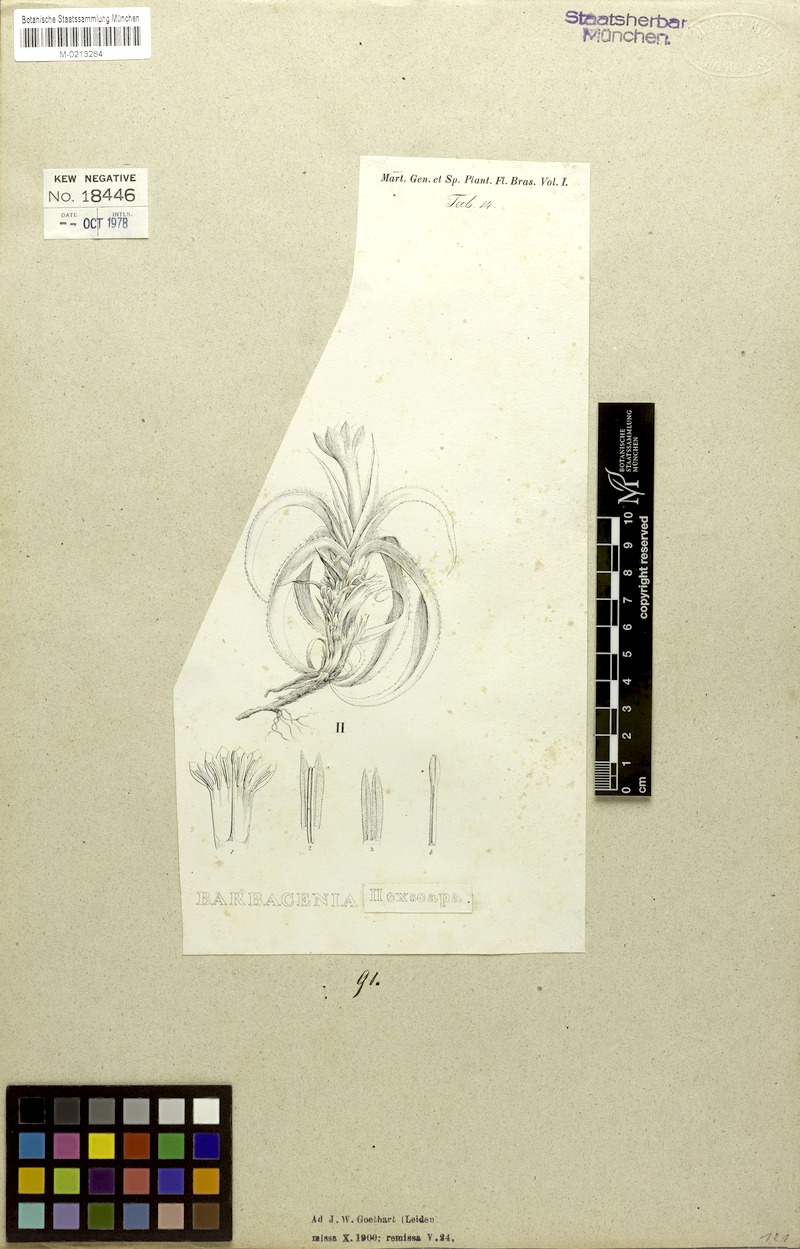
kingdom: Plantae
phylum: Tracheophyta
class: Liliopsida
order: Pandanales
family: Velloziaceae
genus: Barbacenia
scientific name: Barbacenia exscapa
